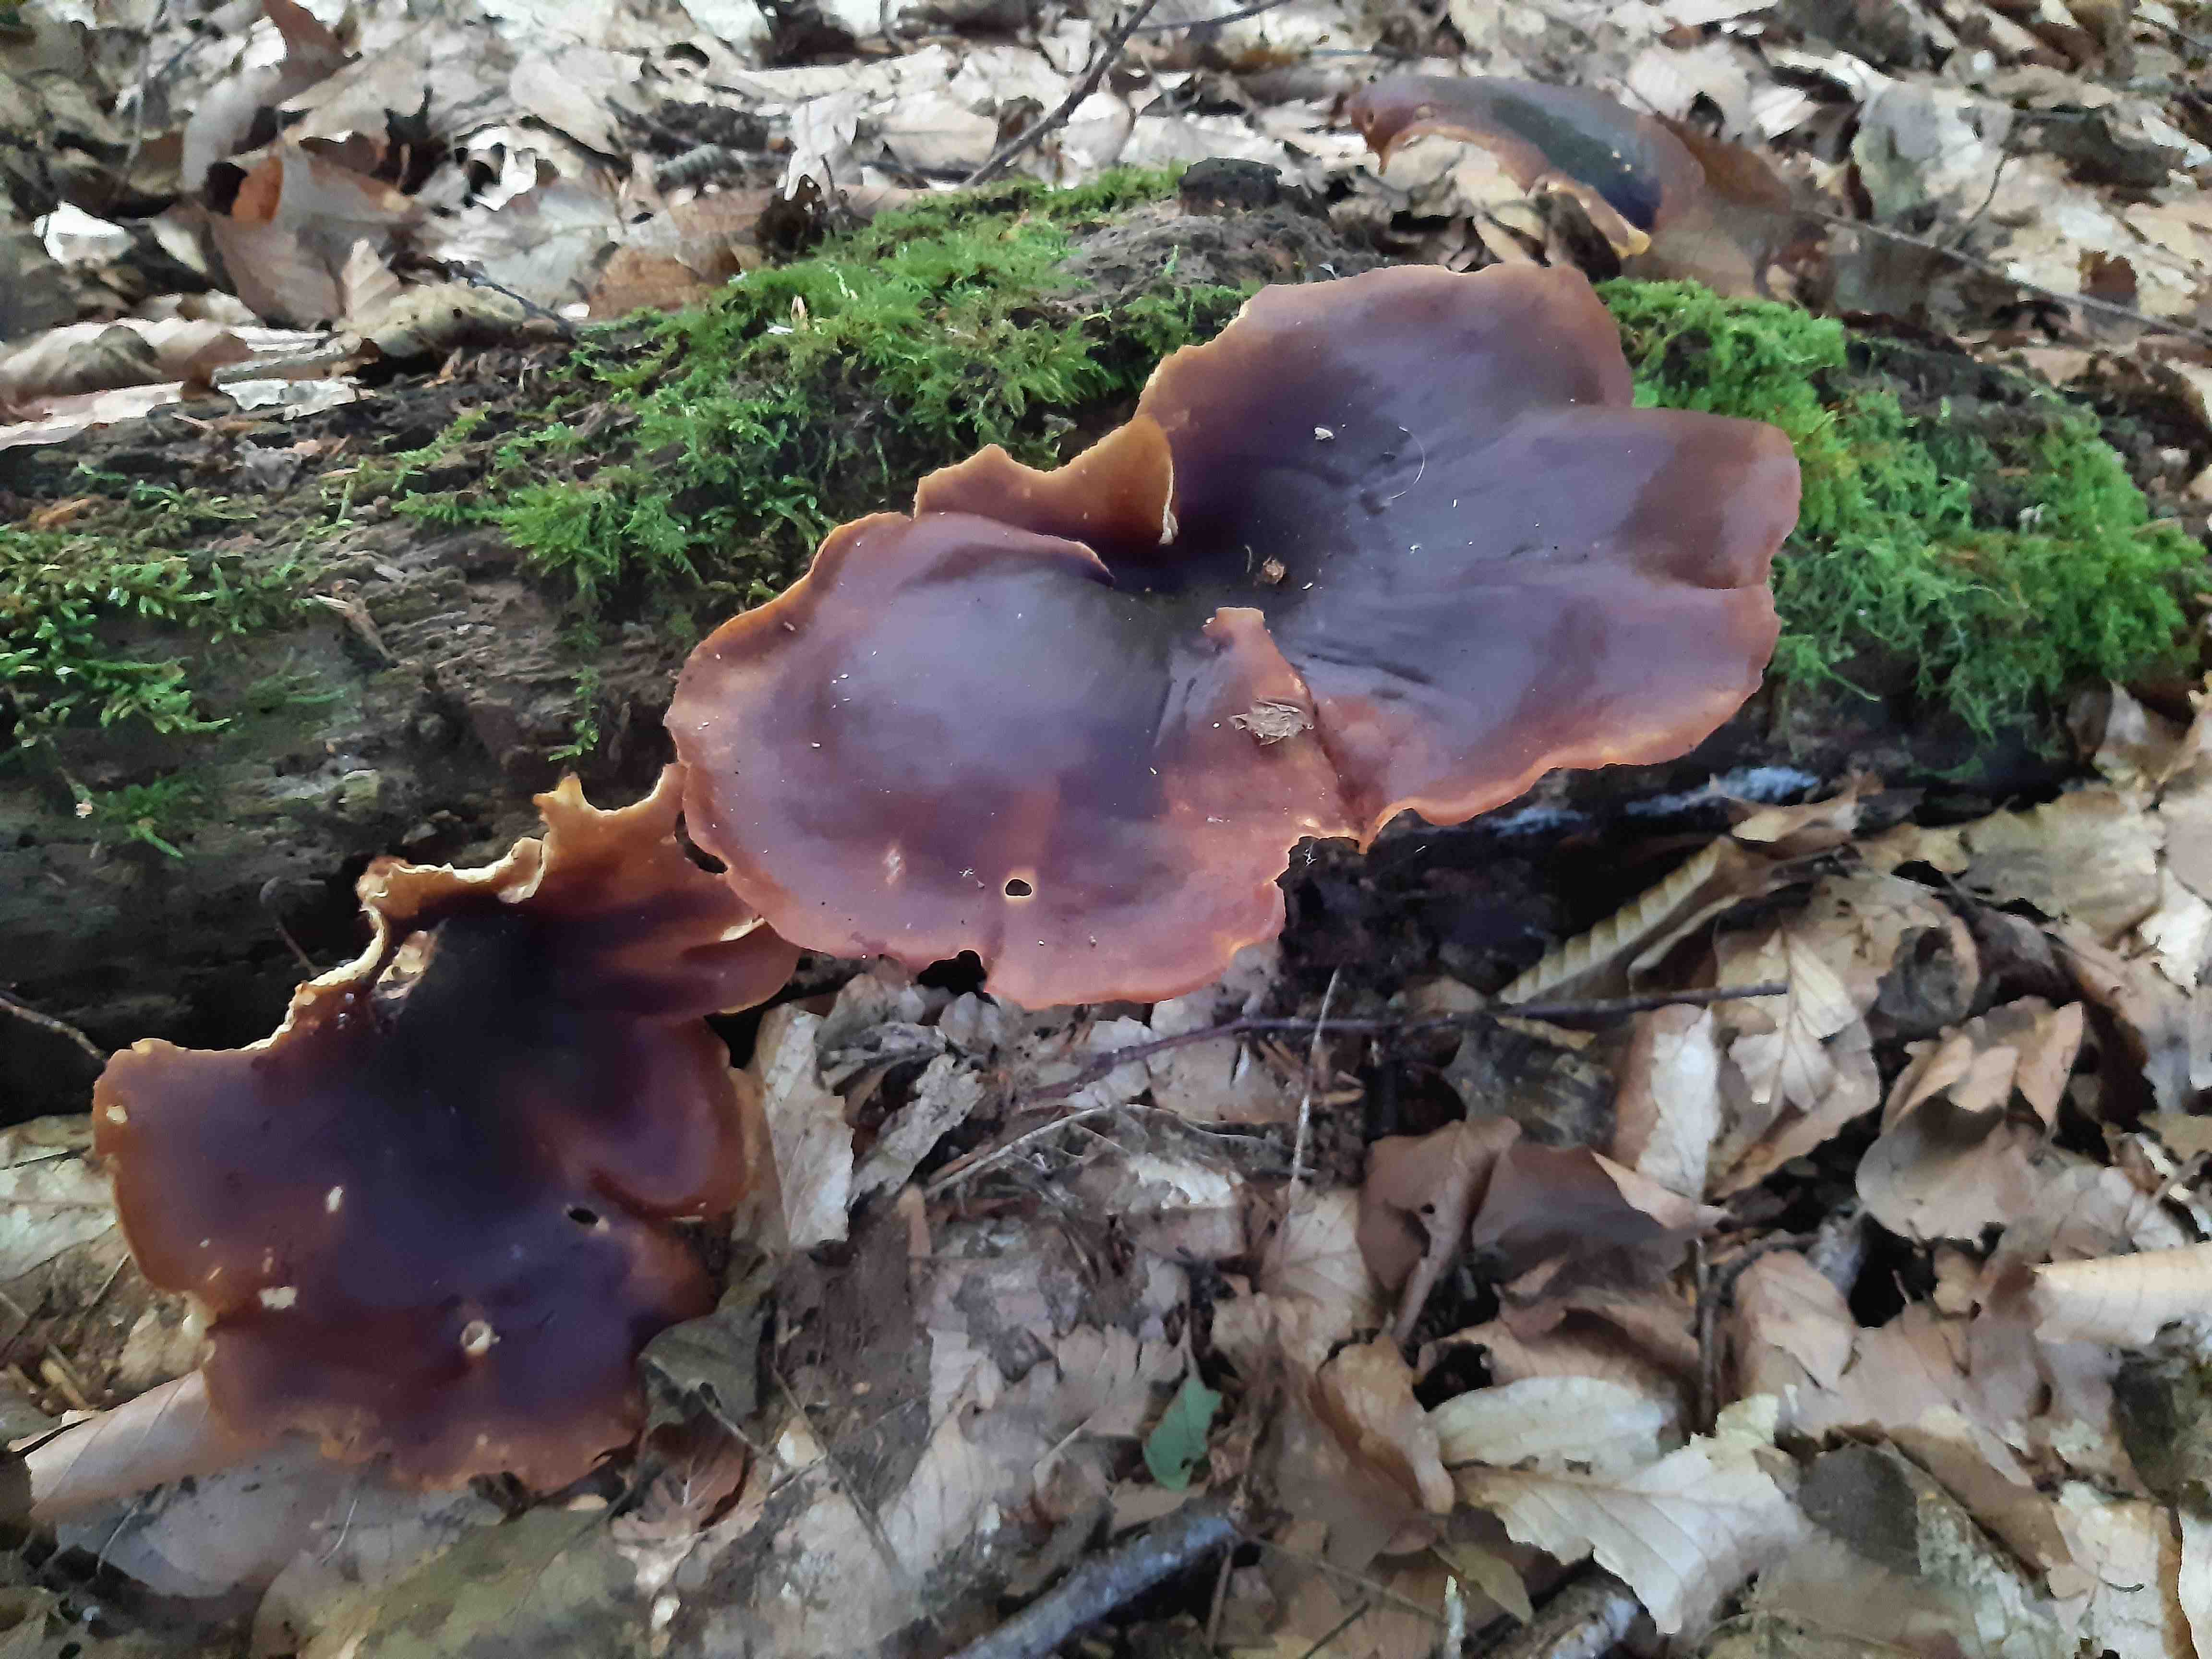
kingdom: Fungi
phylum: Basidiomycota
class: Agaricomycetes
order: Polyporales
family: Polyporaceae
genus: Picipes
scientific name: Picipes badius
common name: kastaniebrun stilkporesvamp
